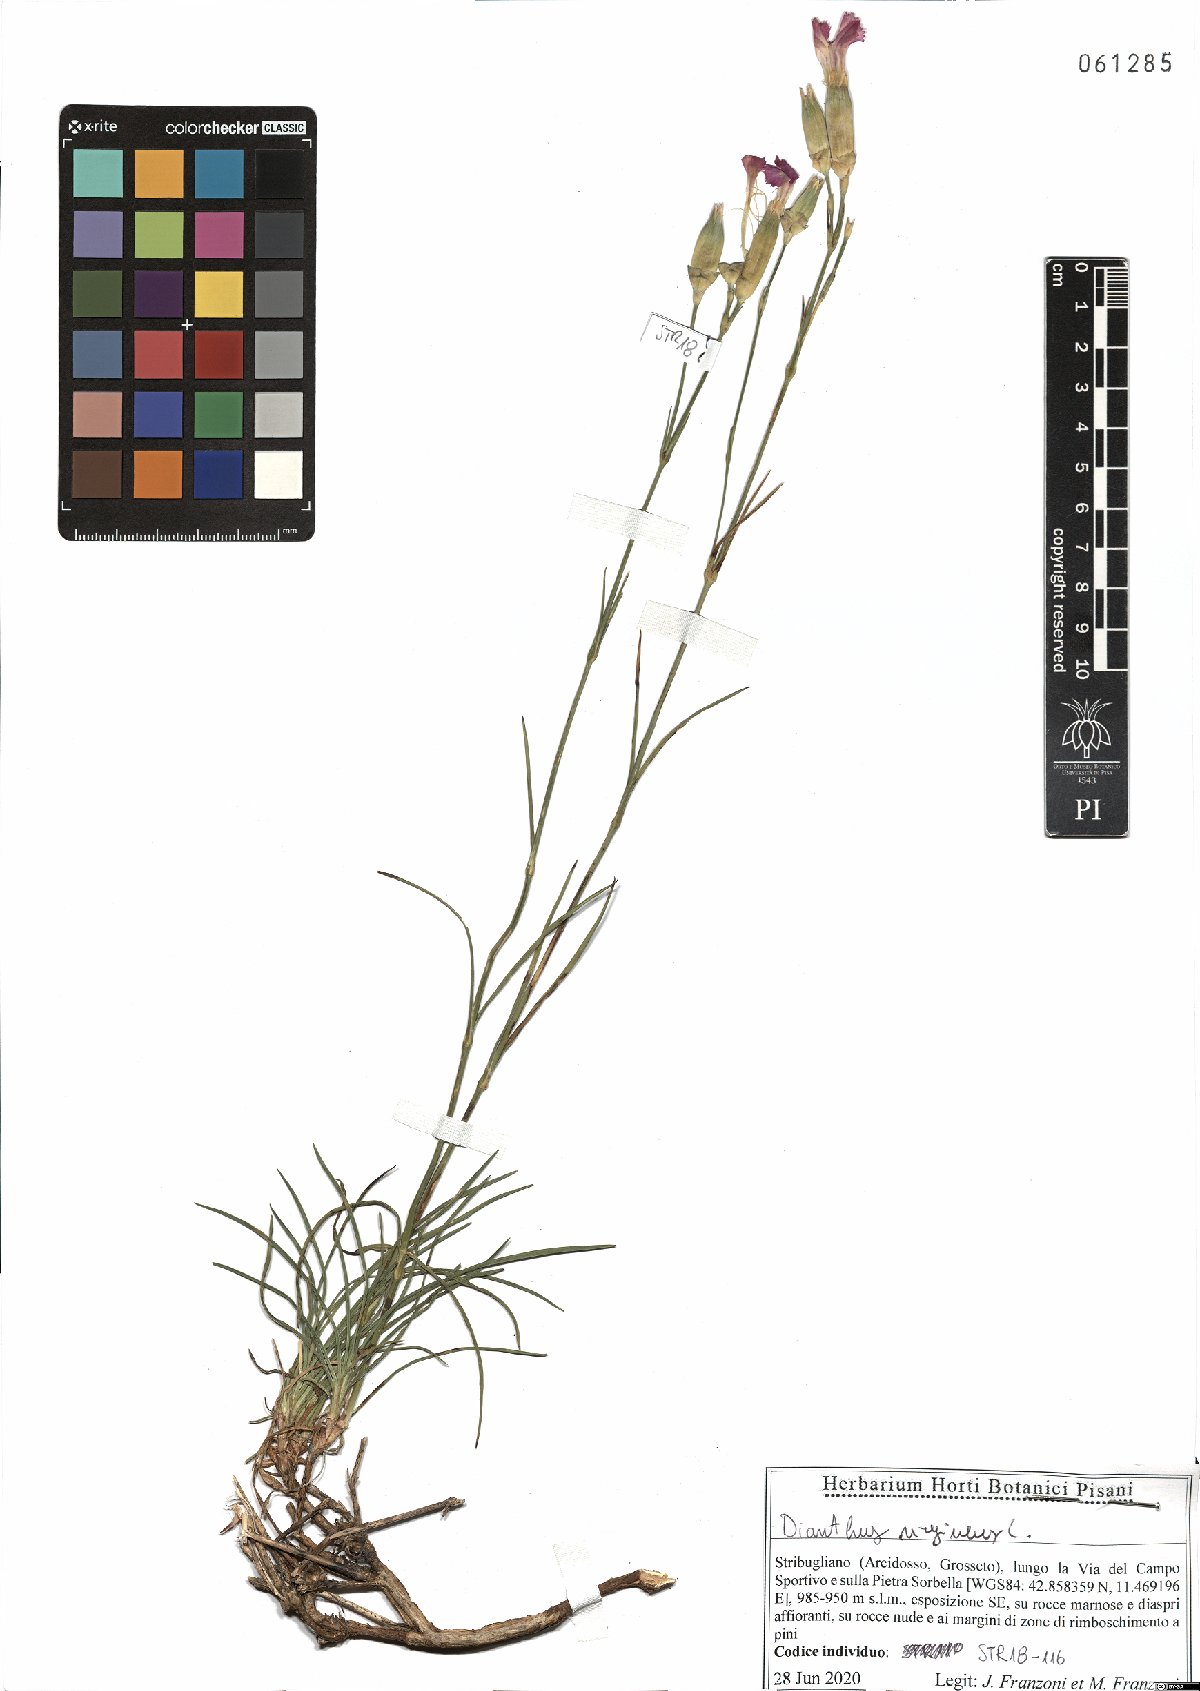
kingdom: Plantae
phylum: Tracheophyta
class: Magnoliopsida
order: Caryophyllales
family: Caryophyllaceae
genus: Dianthus
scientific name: Dianthus virgineus
